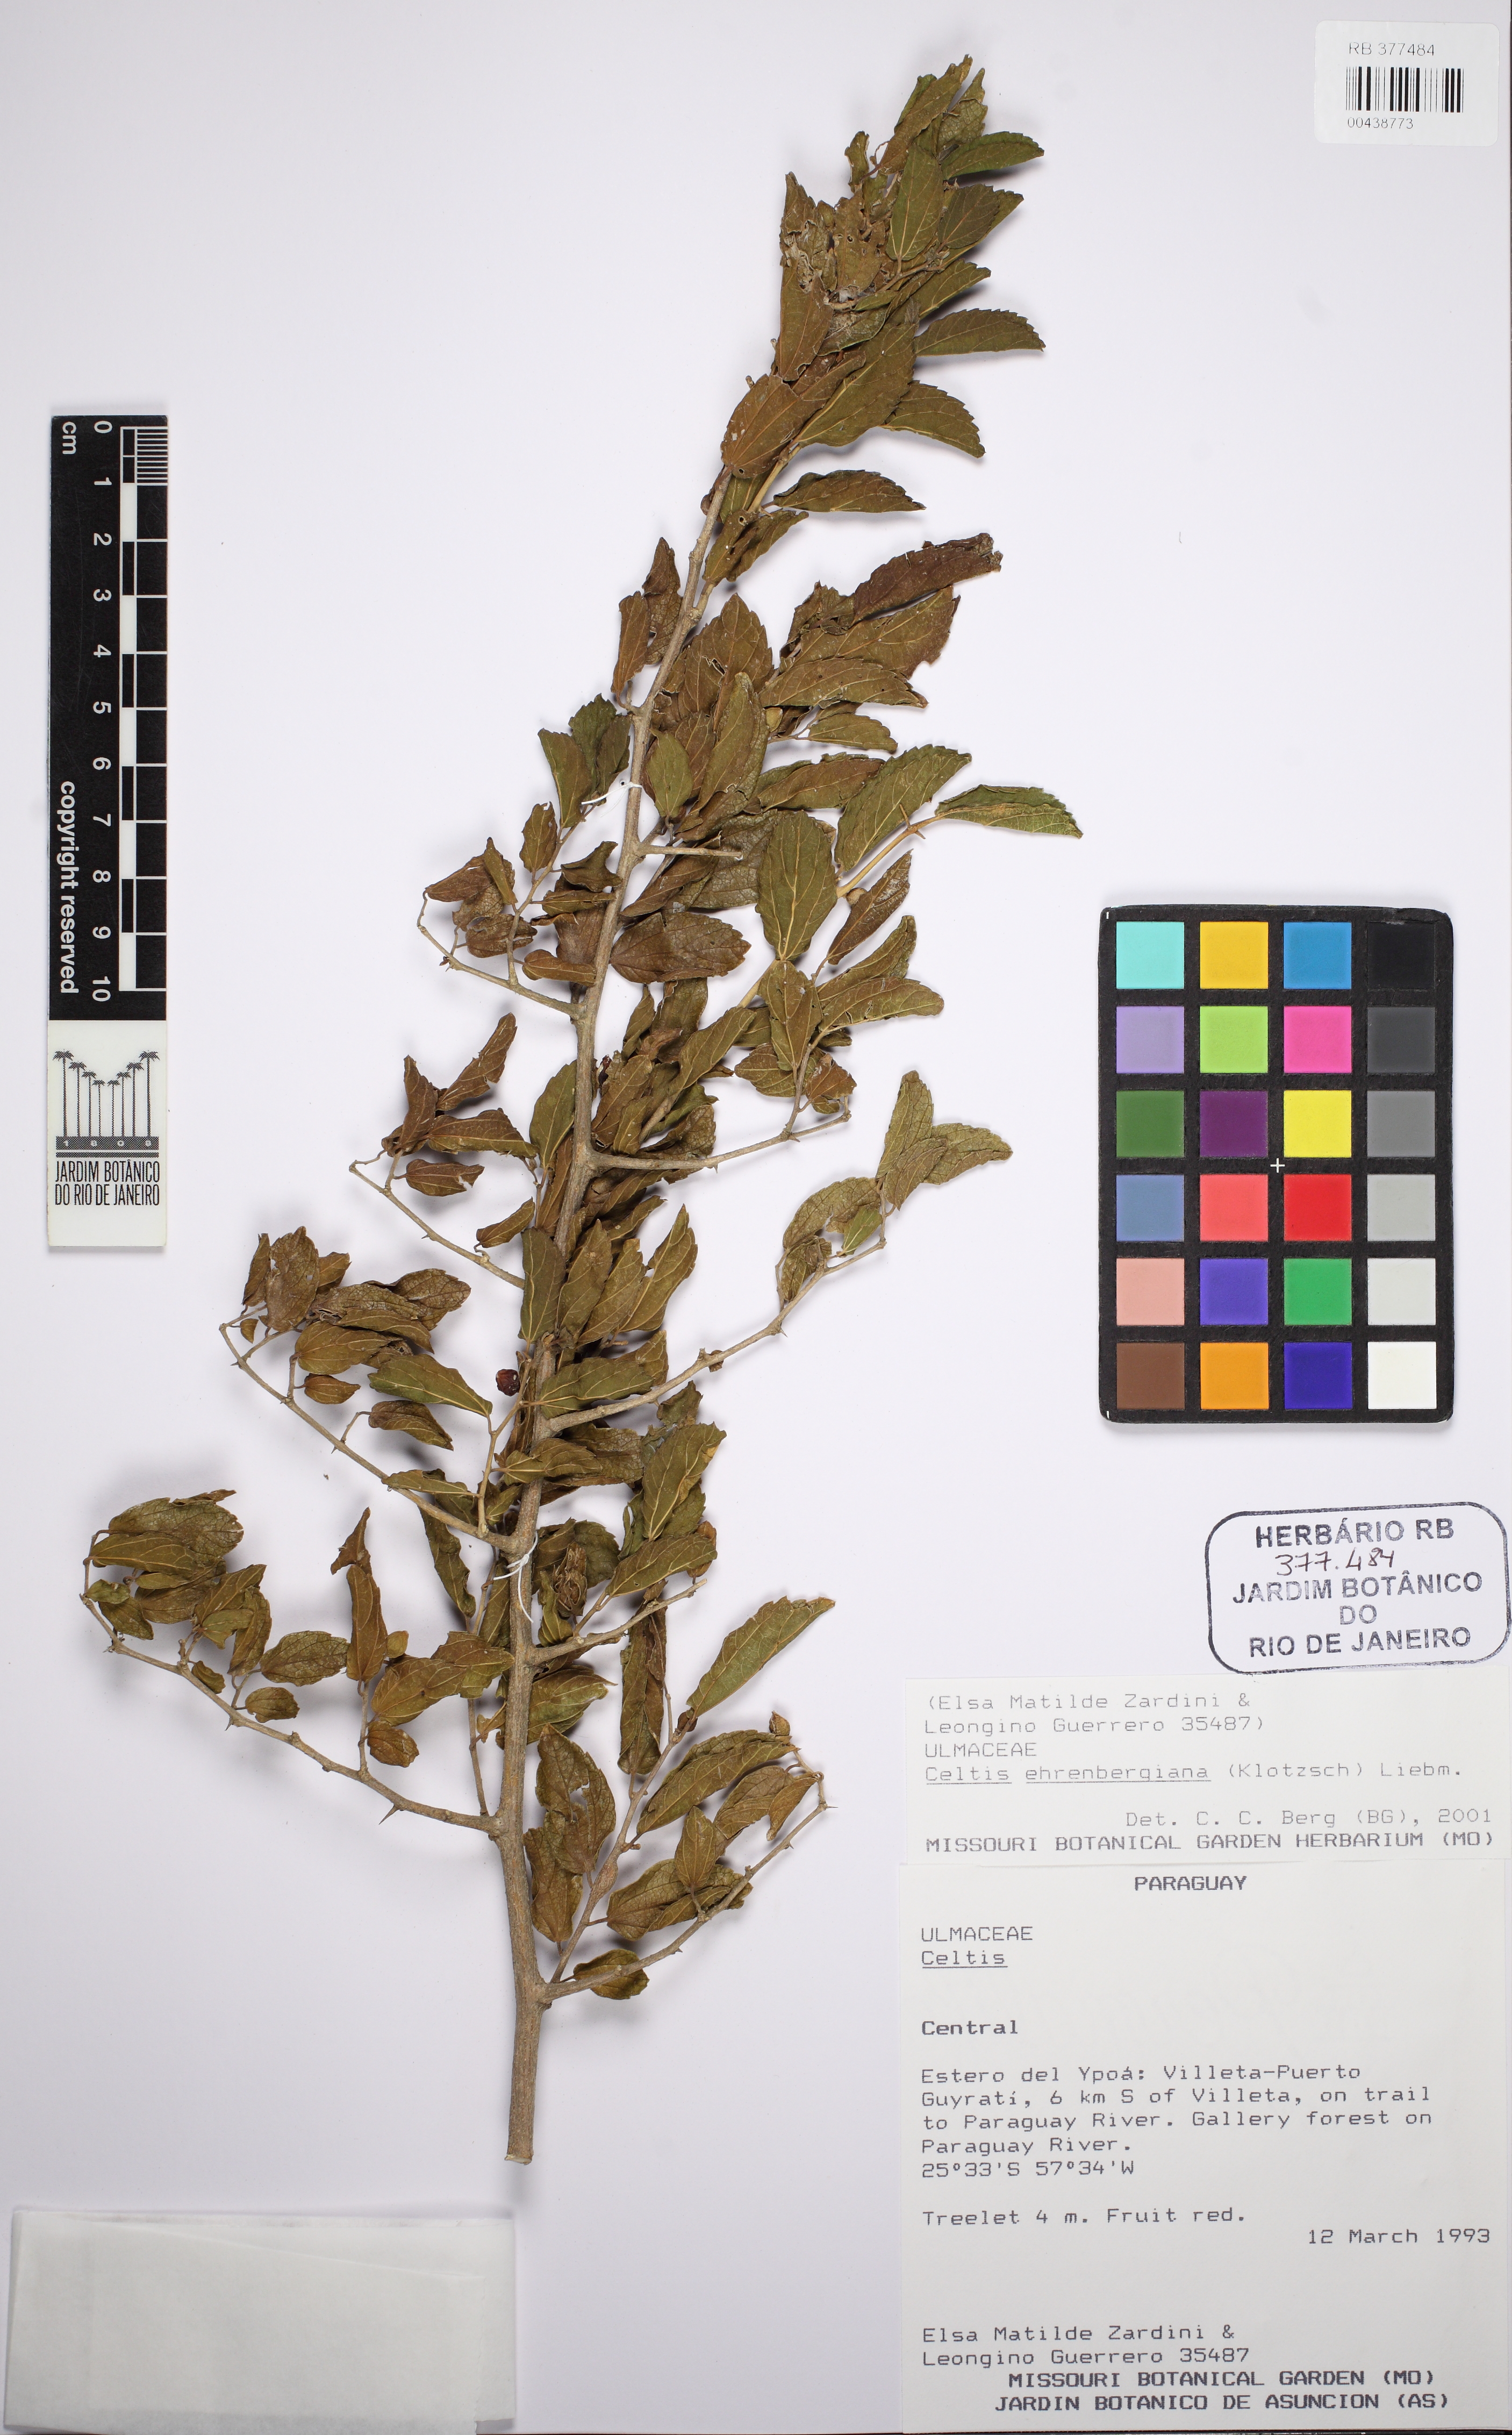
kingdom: Plantae
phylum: Tracheophyta
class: Magnoliopsida
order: Rosales
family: Cannabaceae
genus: Celtis
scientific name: Celtis iguanaea
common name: Iguana hackberry
